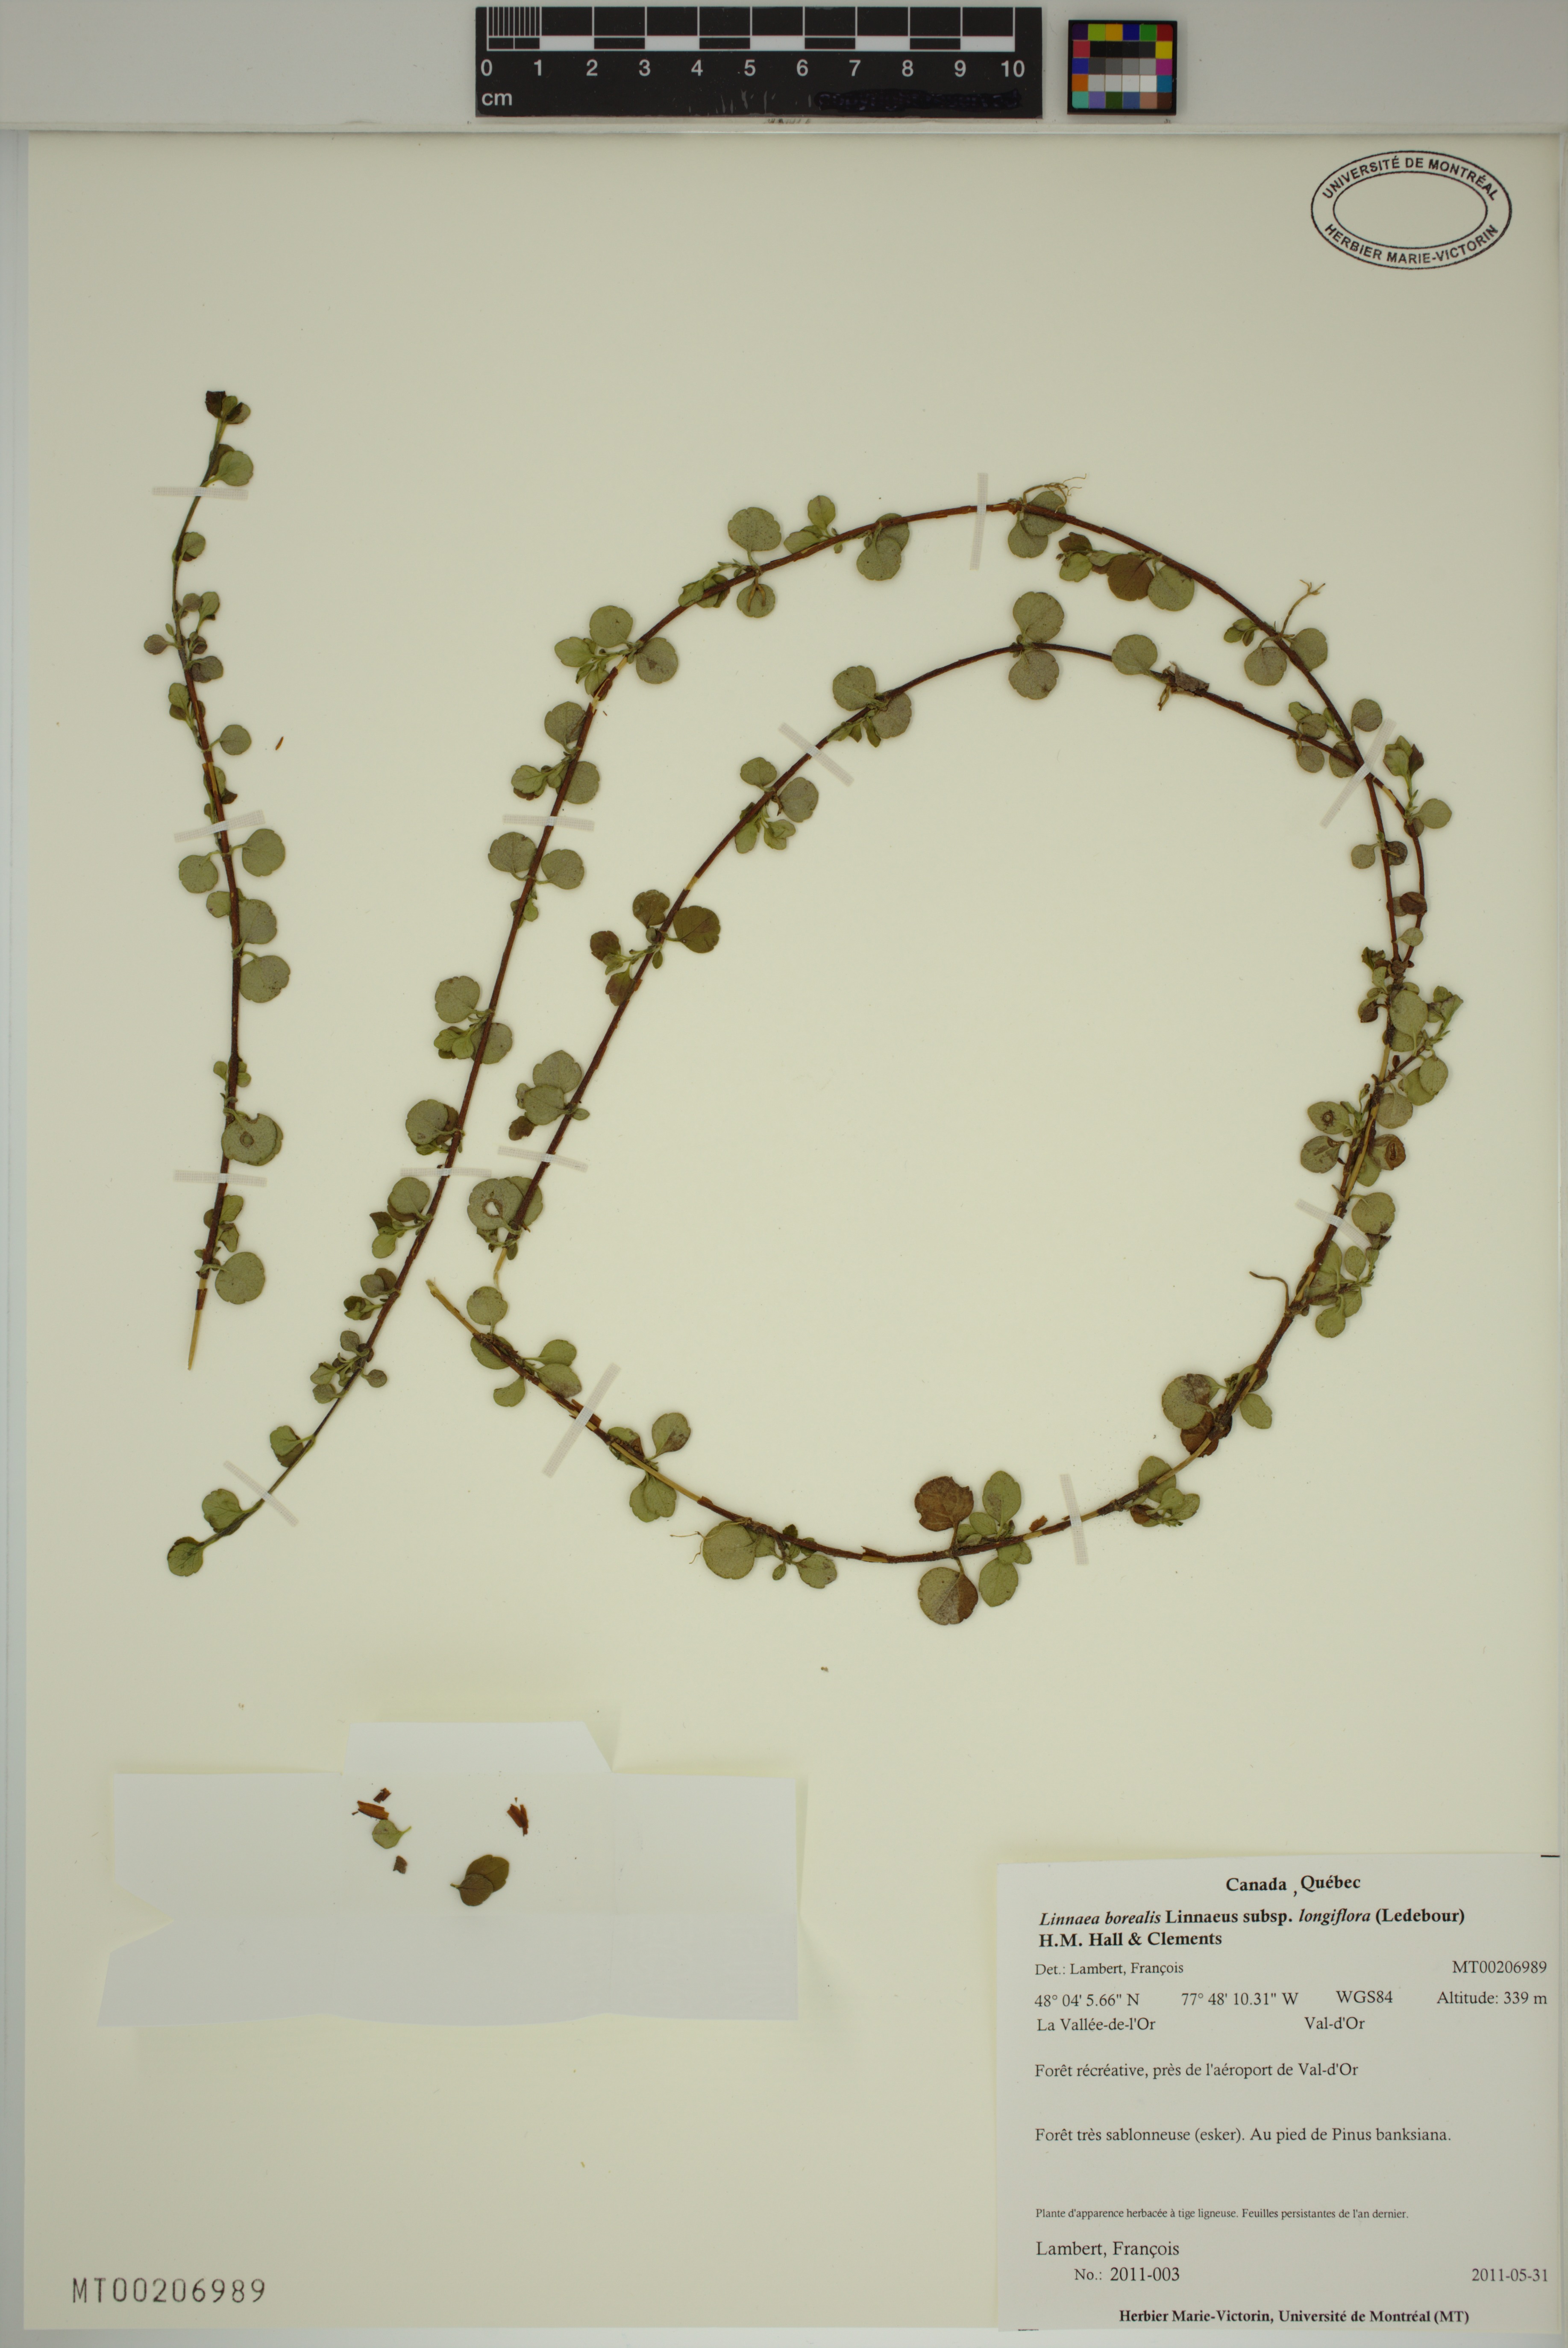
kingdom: Plantae
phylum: Tracheophyta
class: Magnoliopsida
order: Dipsacales
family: Caprifoliaceae
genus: Linnaea
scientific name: Linnaea borealis
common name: Twinflower
